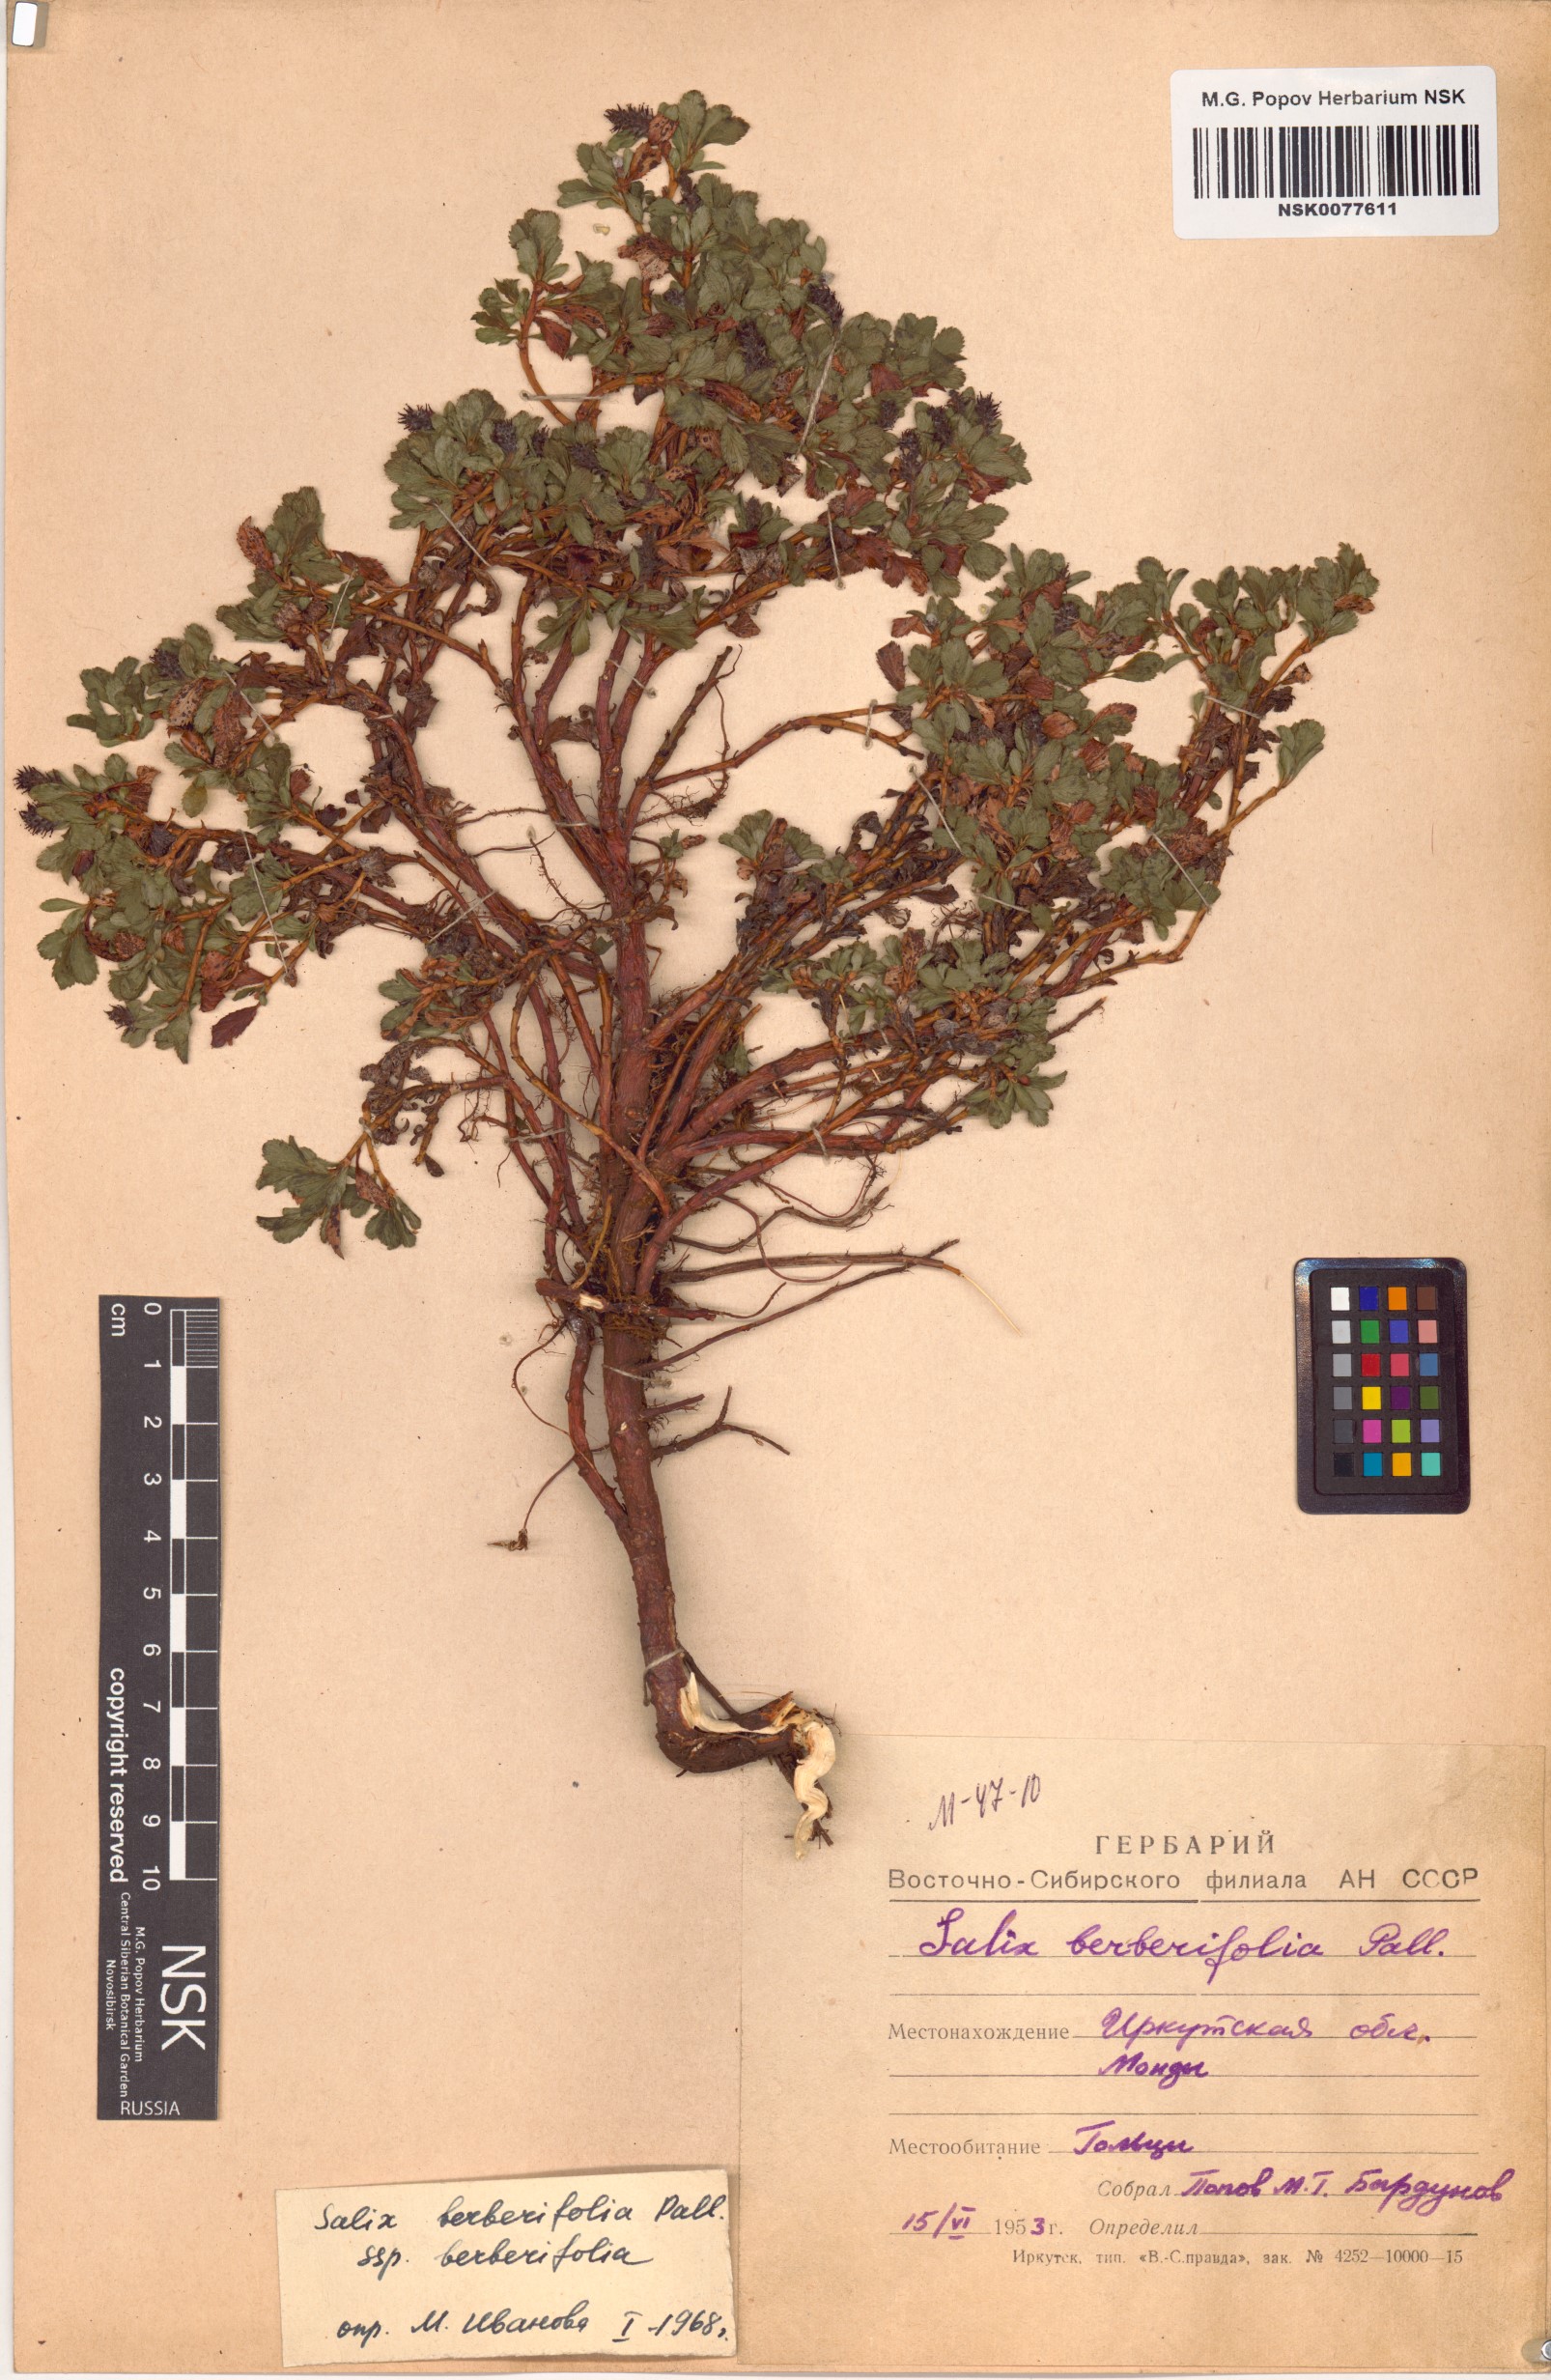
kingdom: Plantae
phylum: Tracheophyta
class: Magnoliopsida
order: Malpighiales
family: Salicaceae
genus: Salix
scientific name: Salix berberifolia
